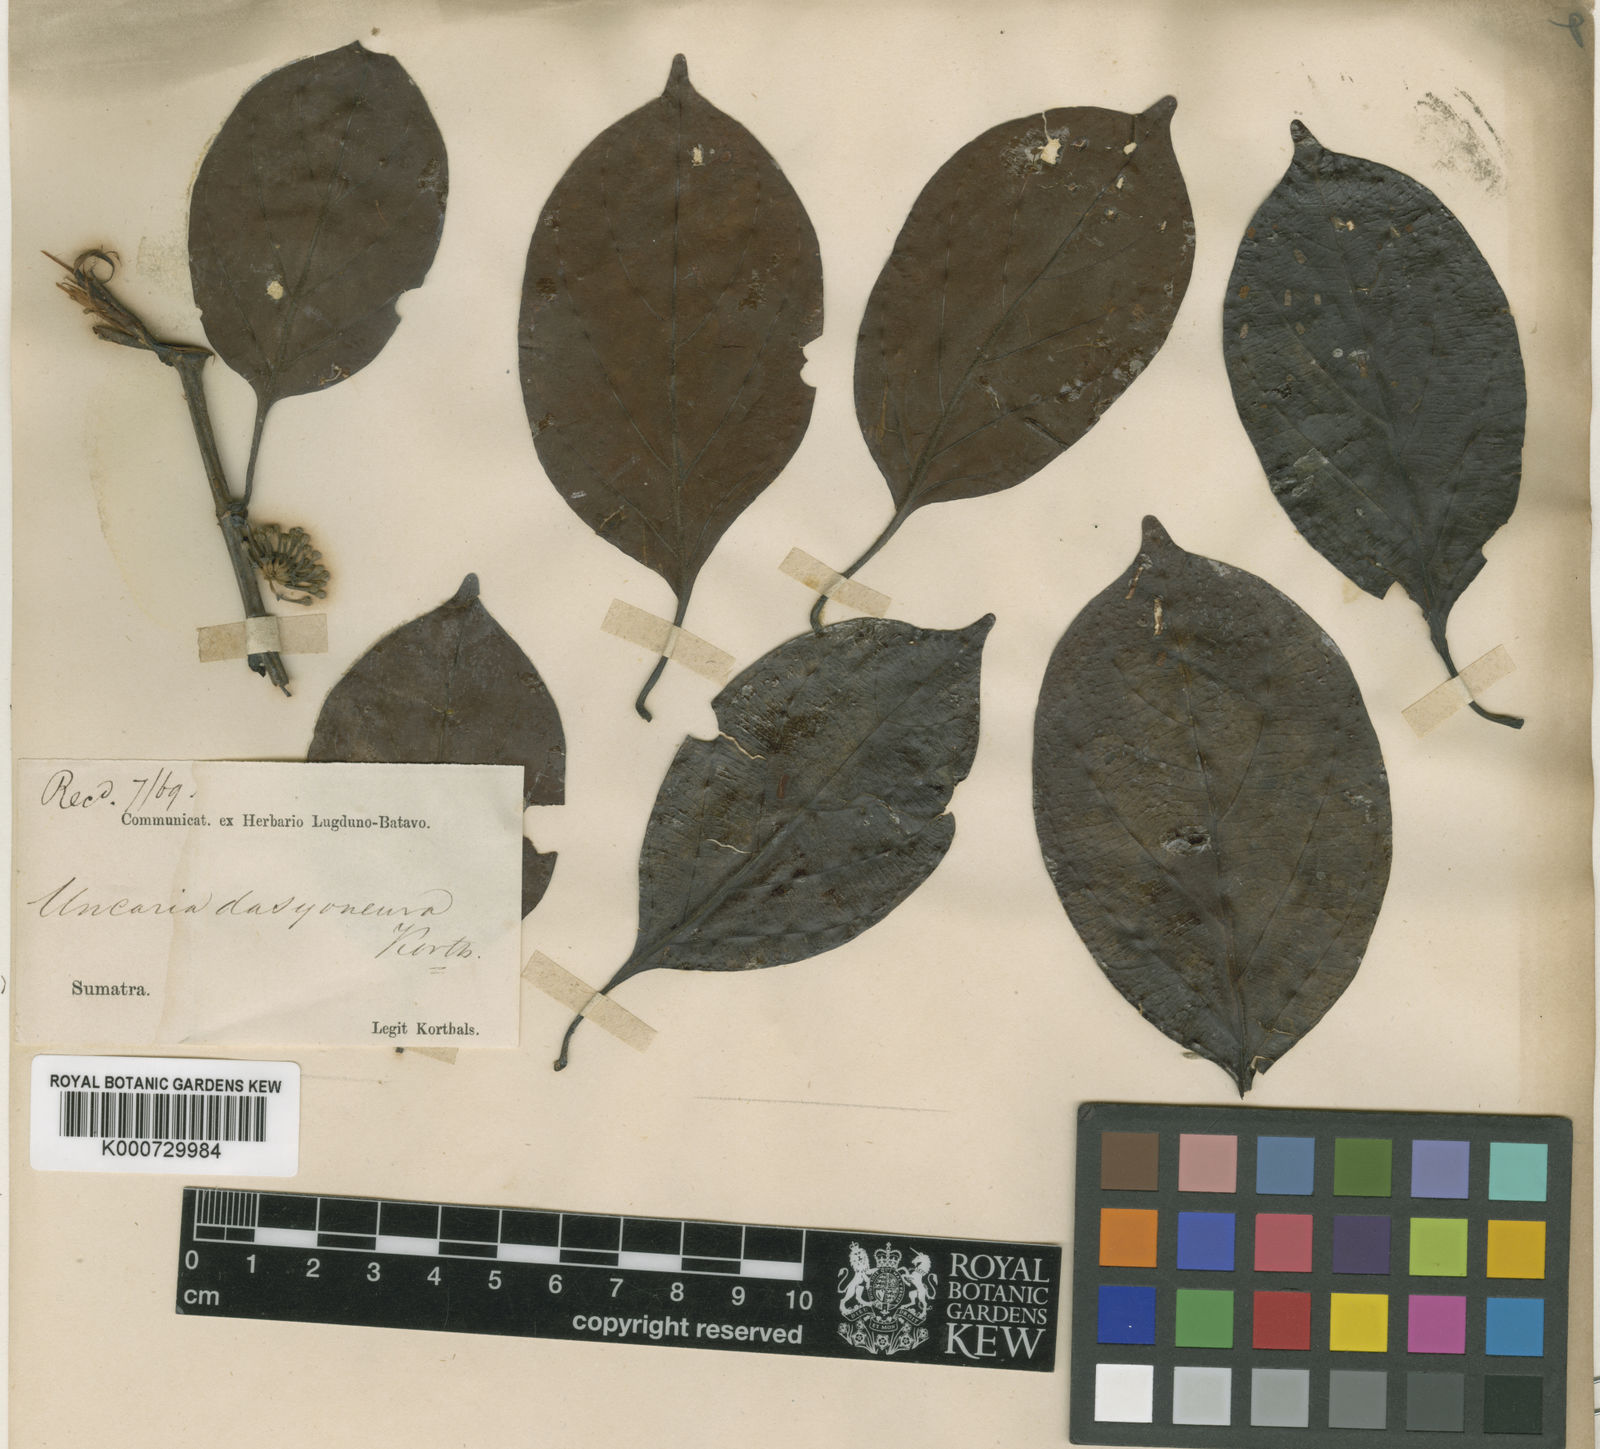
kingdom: Plantae
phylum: Tracheophyta
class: Magnoliopsida
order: Gentianales
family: Rubiaceae
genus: Uncaria
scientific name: Uncaria elliptica
